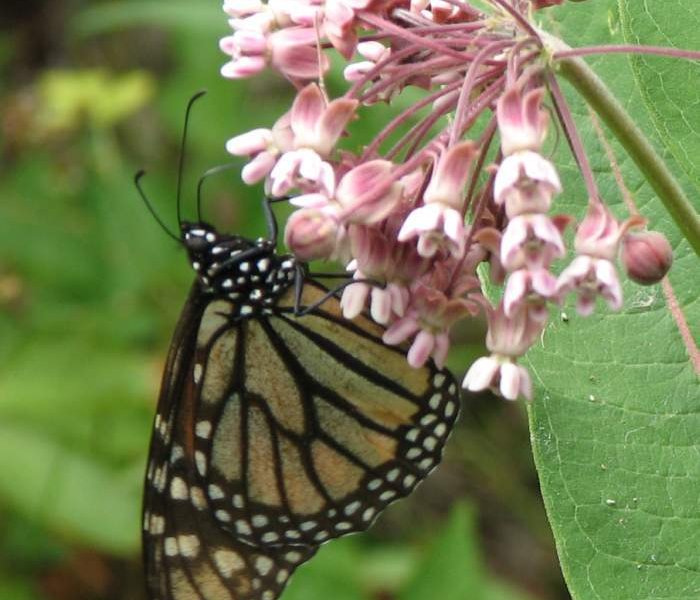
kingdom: Animalia
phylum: Arthropoda
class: Insecta
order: Lepidoptera
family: Nymphalidae
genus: Danaus
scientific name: Danaus plexippus
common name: Monarch
